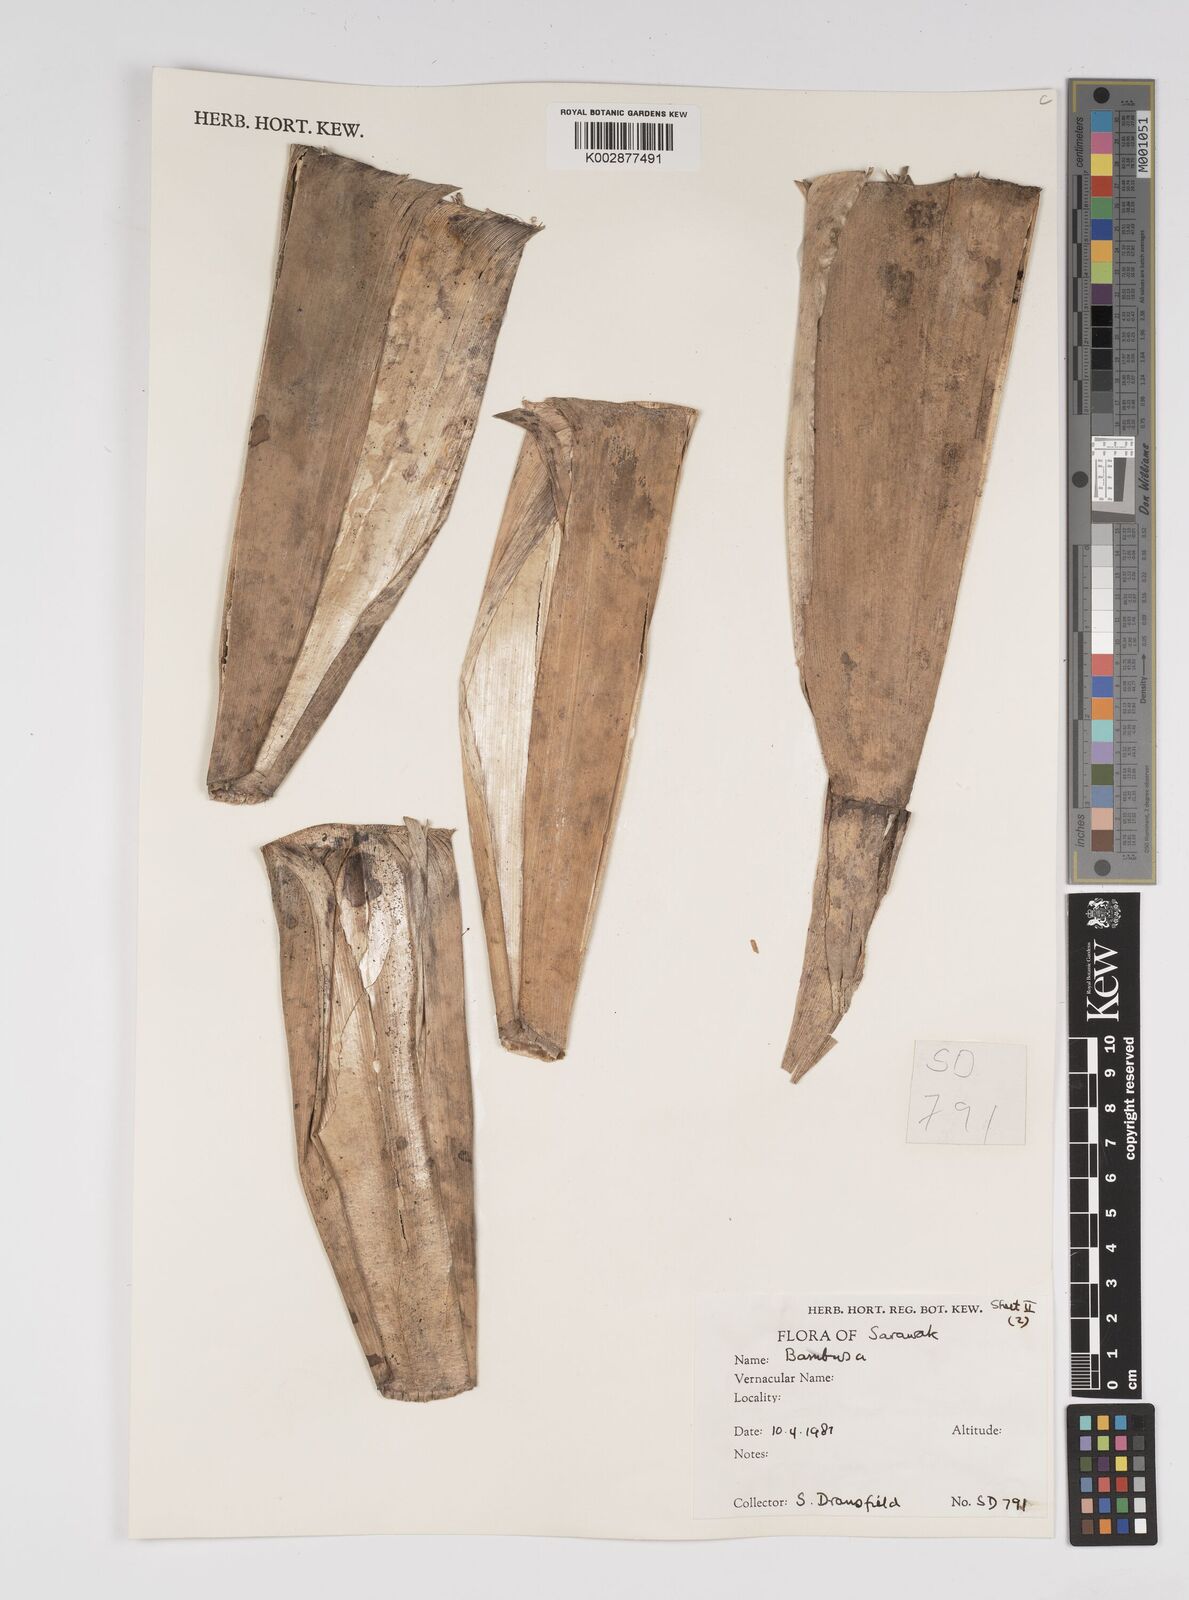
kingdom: Plantae
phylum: Tracheophyta
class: Liliopsida
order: Poales
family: Poaceae
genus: Bambusa
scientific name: Bambusa
